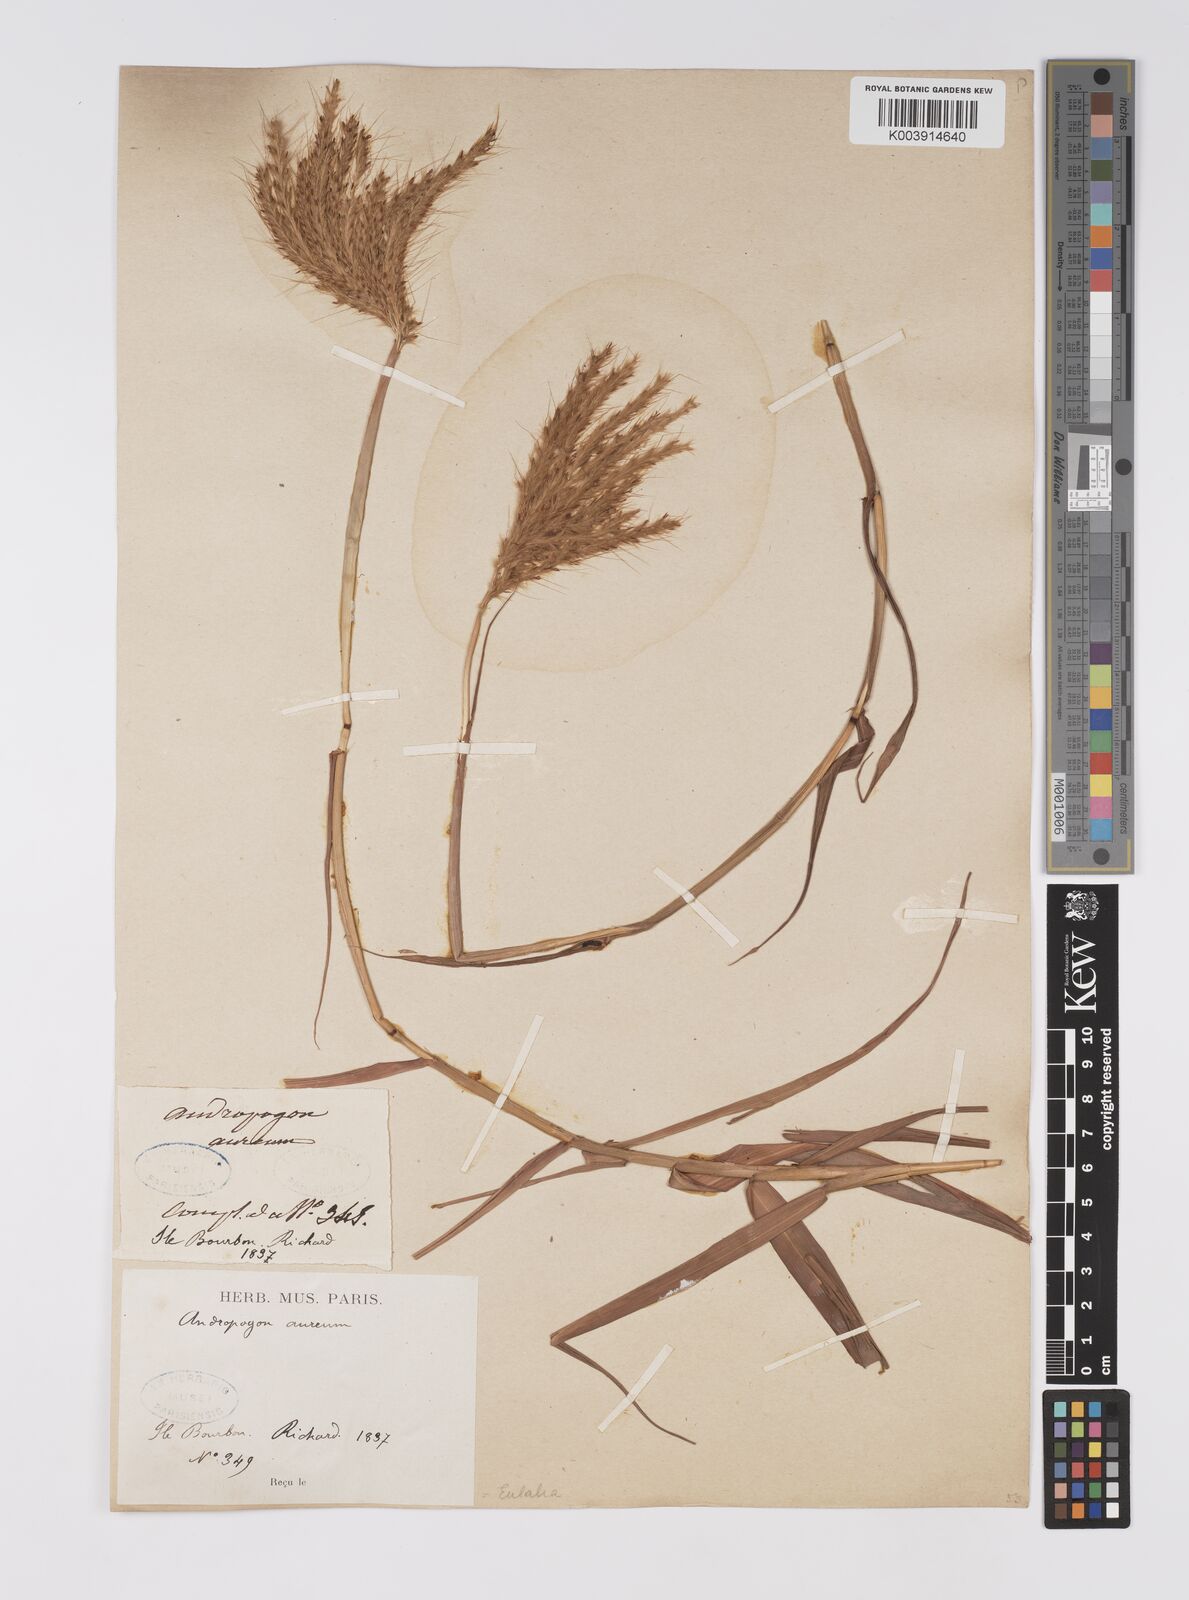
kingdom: Plantae
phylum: Tracheophyta
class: Liliopsida
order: Poales
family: Poaceae
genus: Eulalia
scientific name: Eulalia aurea
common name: Silky browntop
